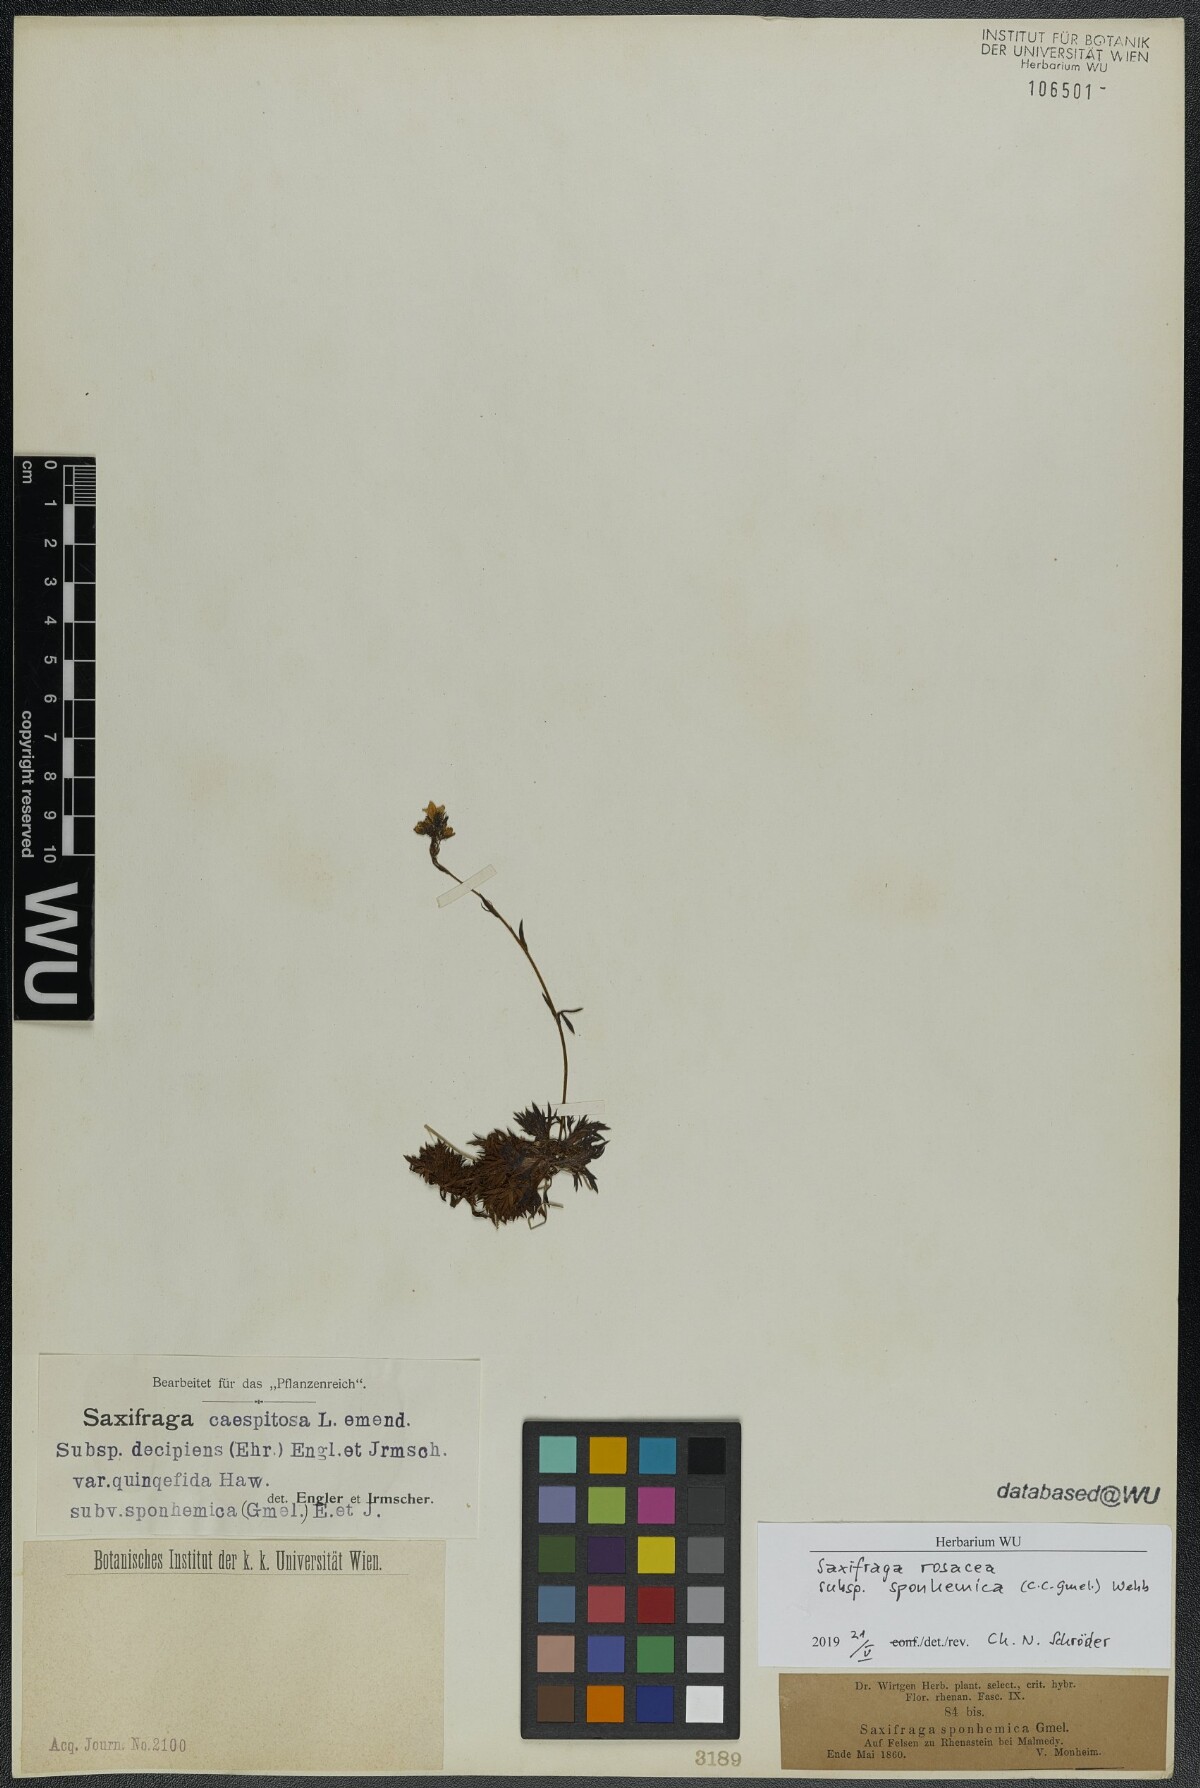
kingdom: Plantae
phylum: Tracheophyta
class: Magnoliopsida
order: Saxifragales
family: Saxifragaceae
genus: Saxifraga
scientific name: Saxifraga rosacea
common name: Irish saxifrage
